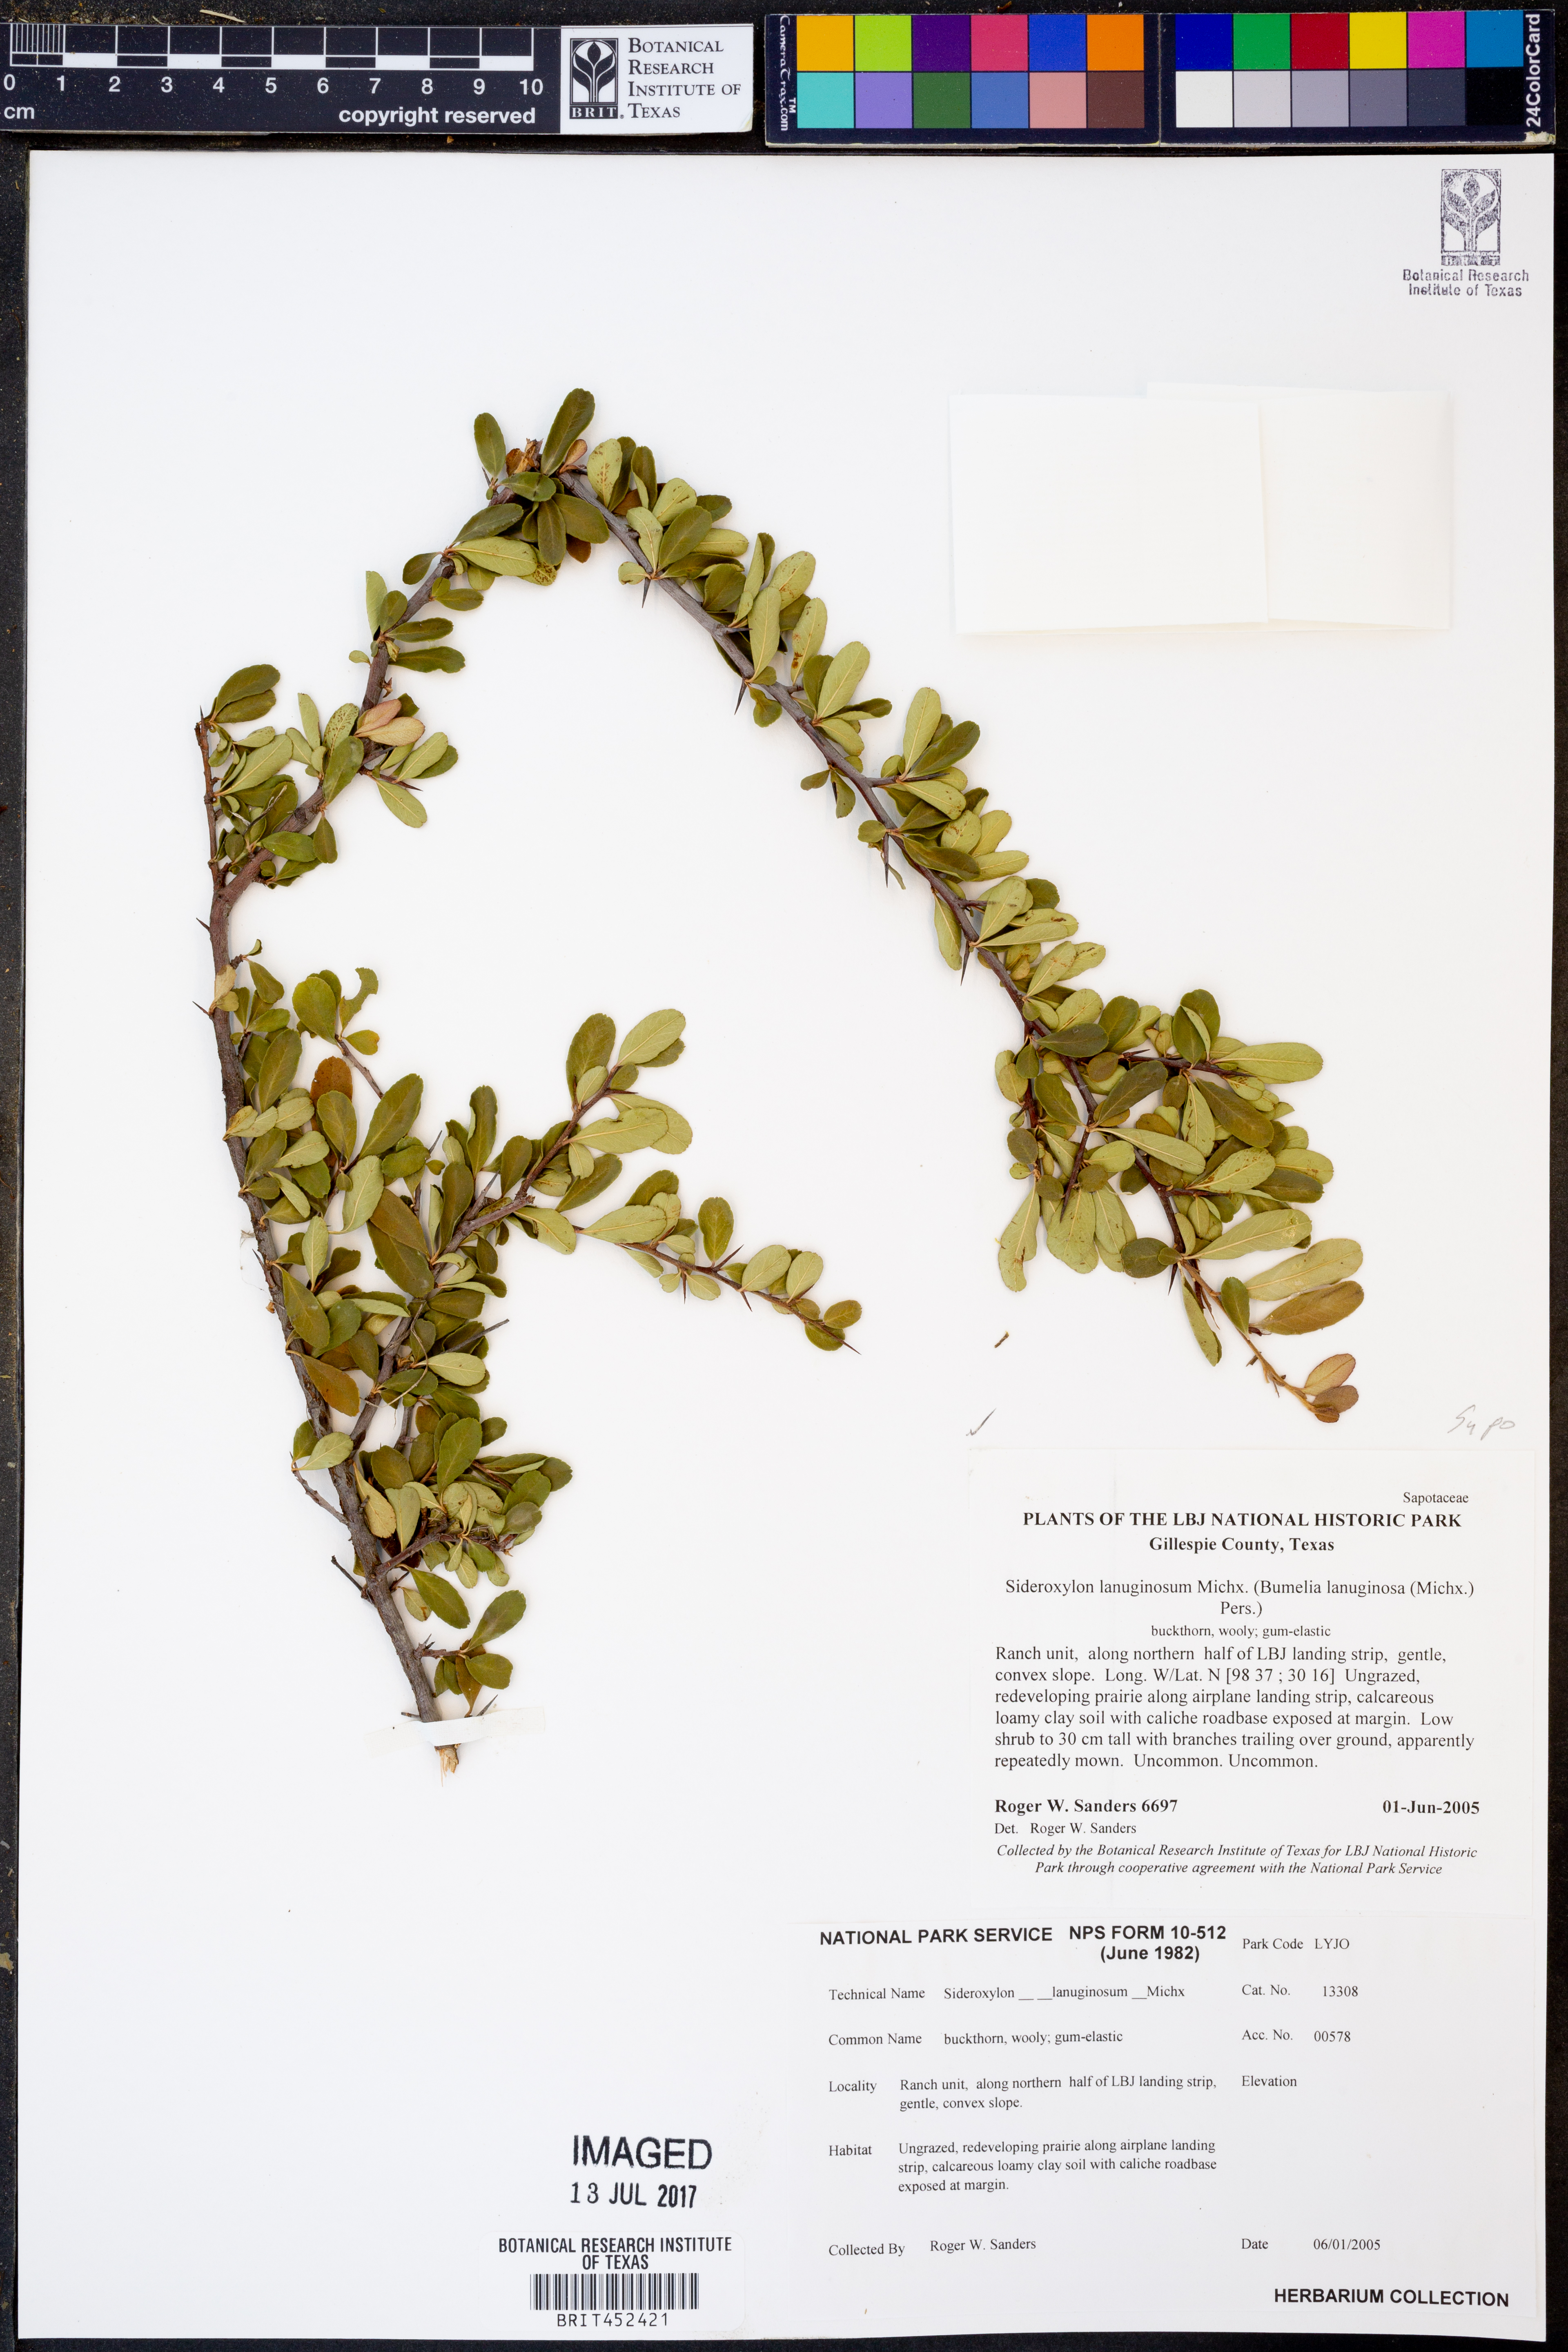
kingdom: Plantae
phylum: Tracheophyta
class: Magnoliopsida
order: Ericales
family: Sapotaceae
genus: Sideroxylon
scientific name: Sideroxylon lanuginosum
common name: Chittamwood
